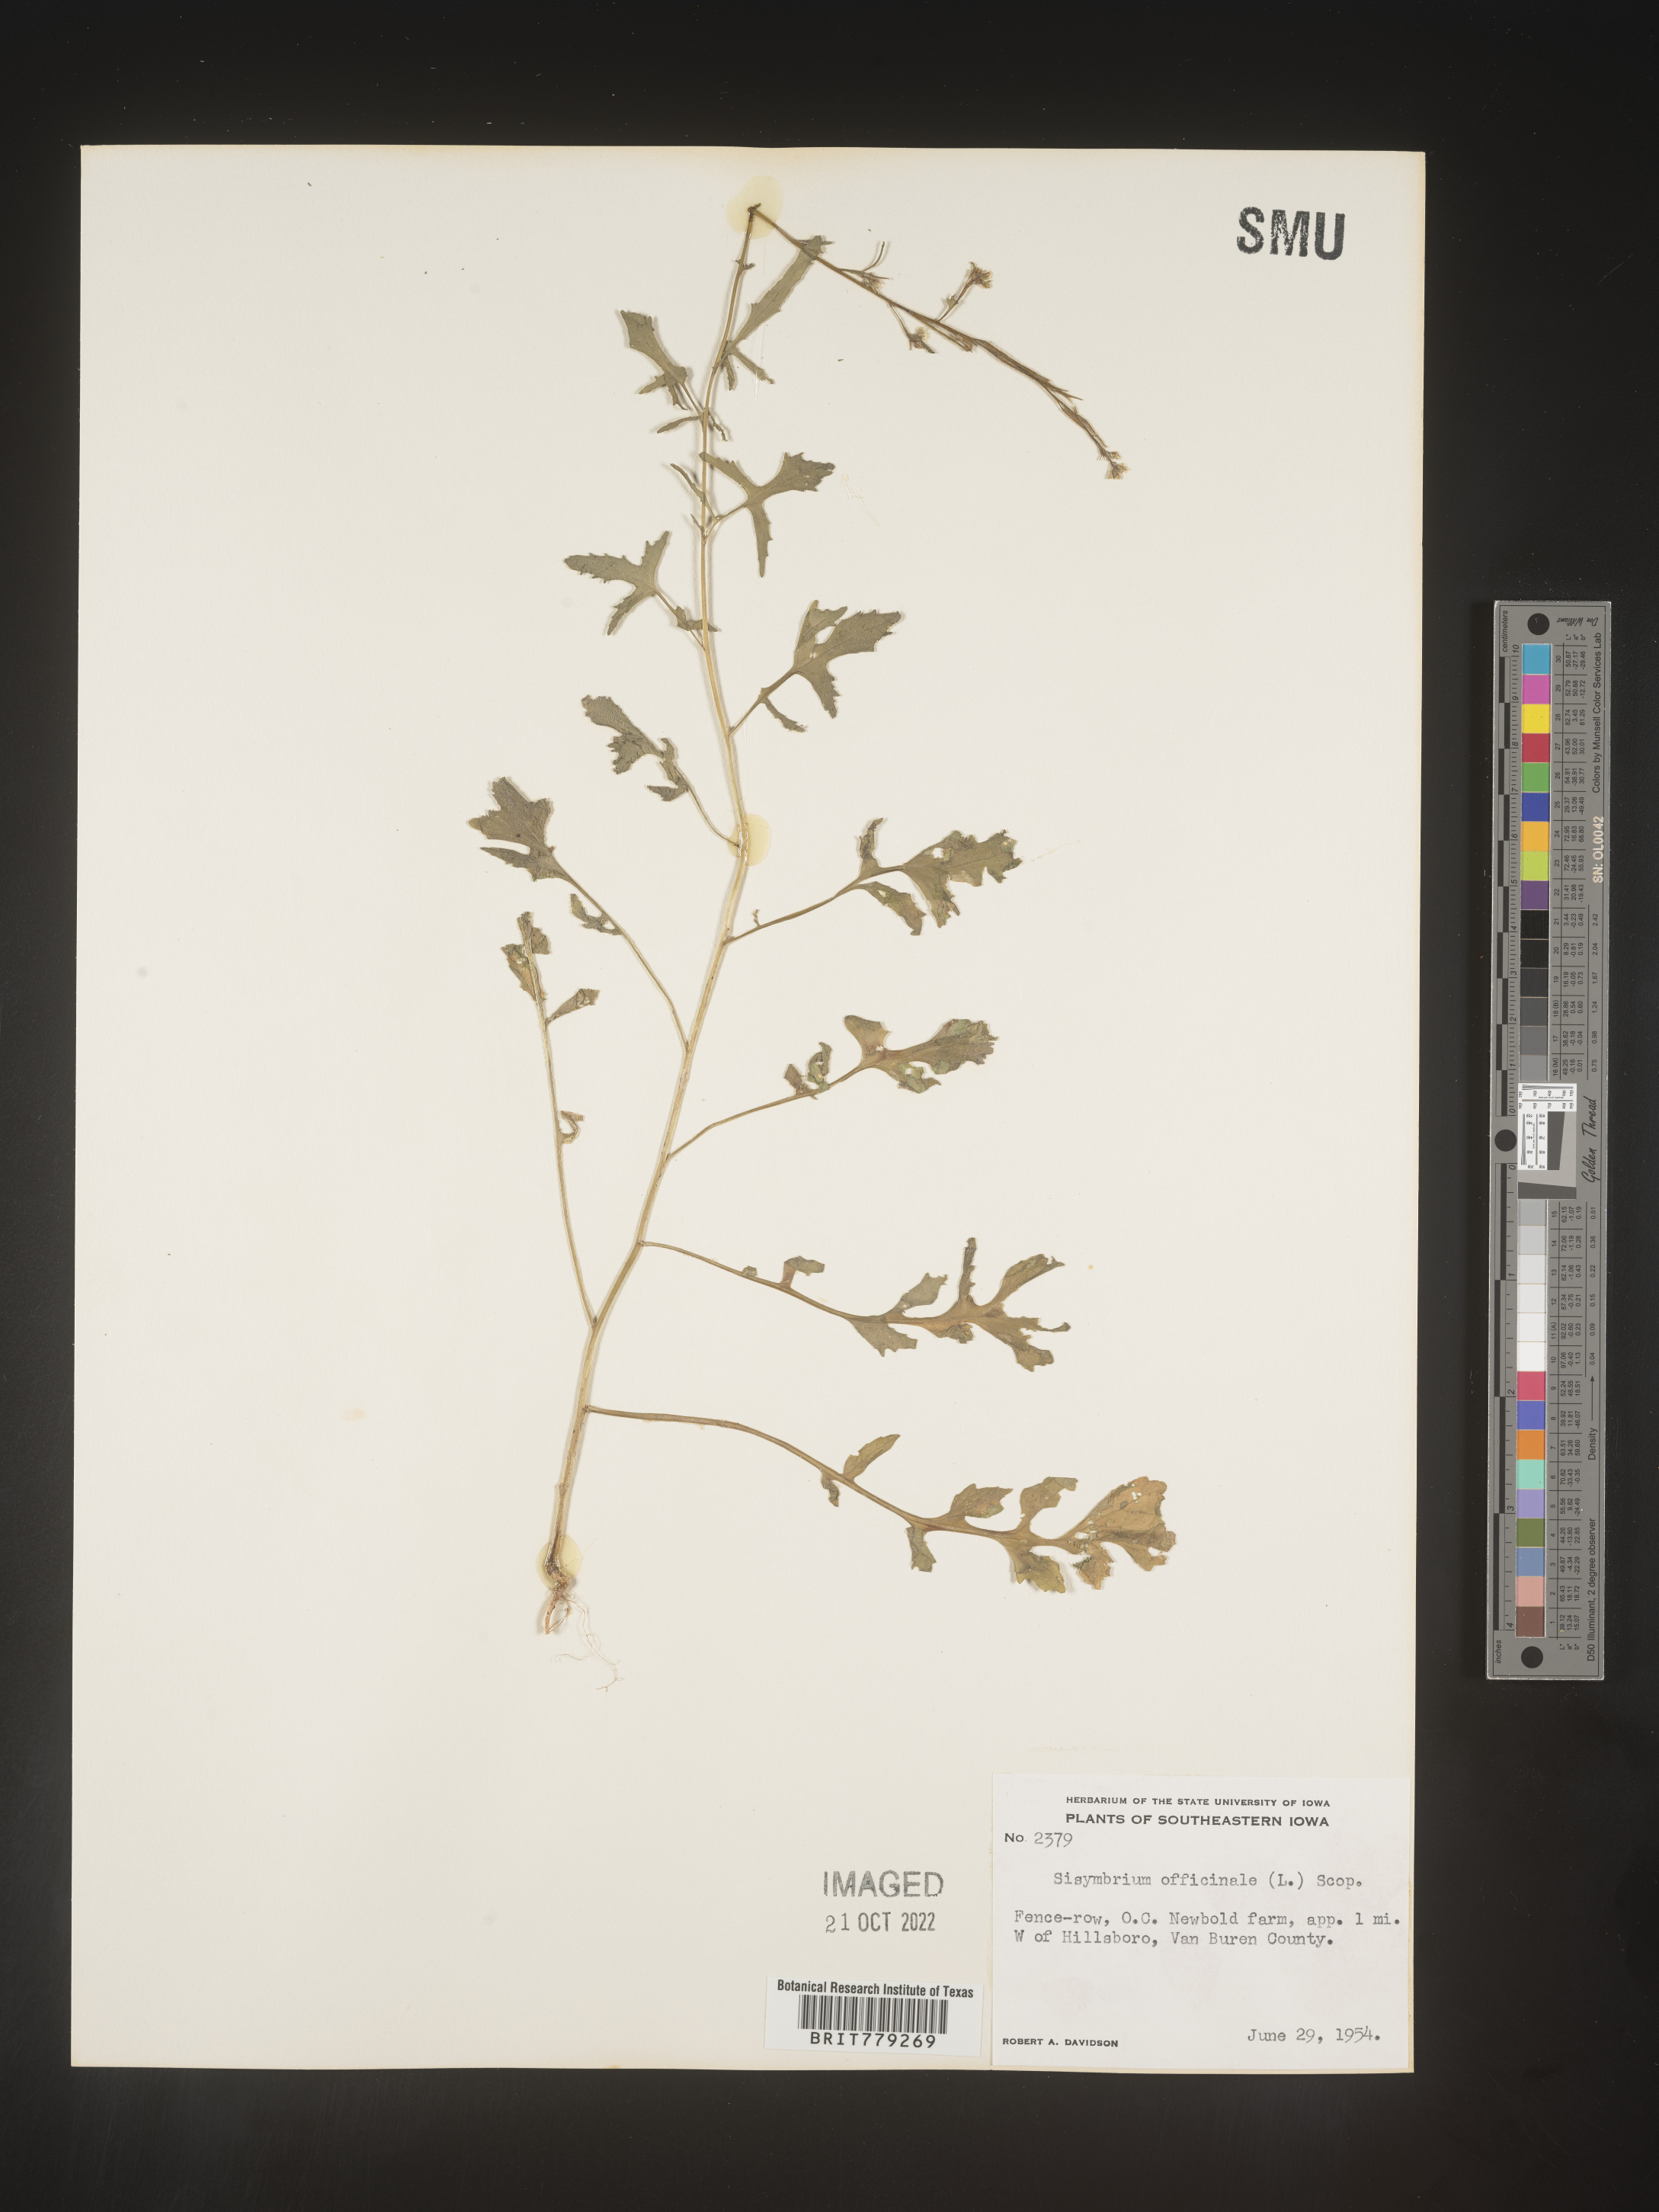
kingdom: Plantae
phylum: Tracheophyta
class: Magnoliopsida
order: Brassicales
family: Brassicaceae
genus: Sisymbrium
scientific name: Sisymbrium officinale
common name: Hedge mustard
